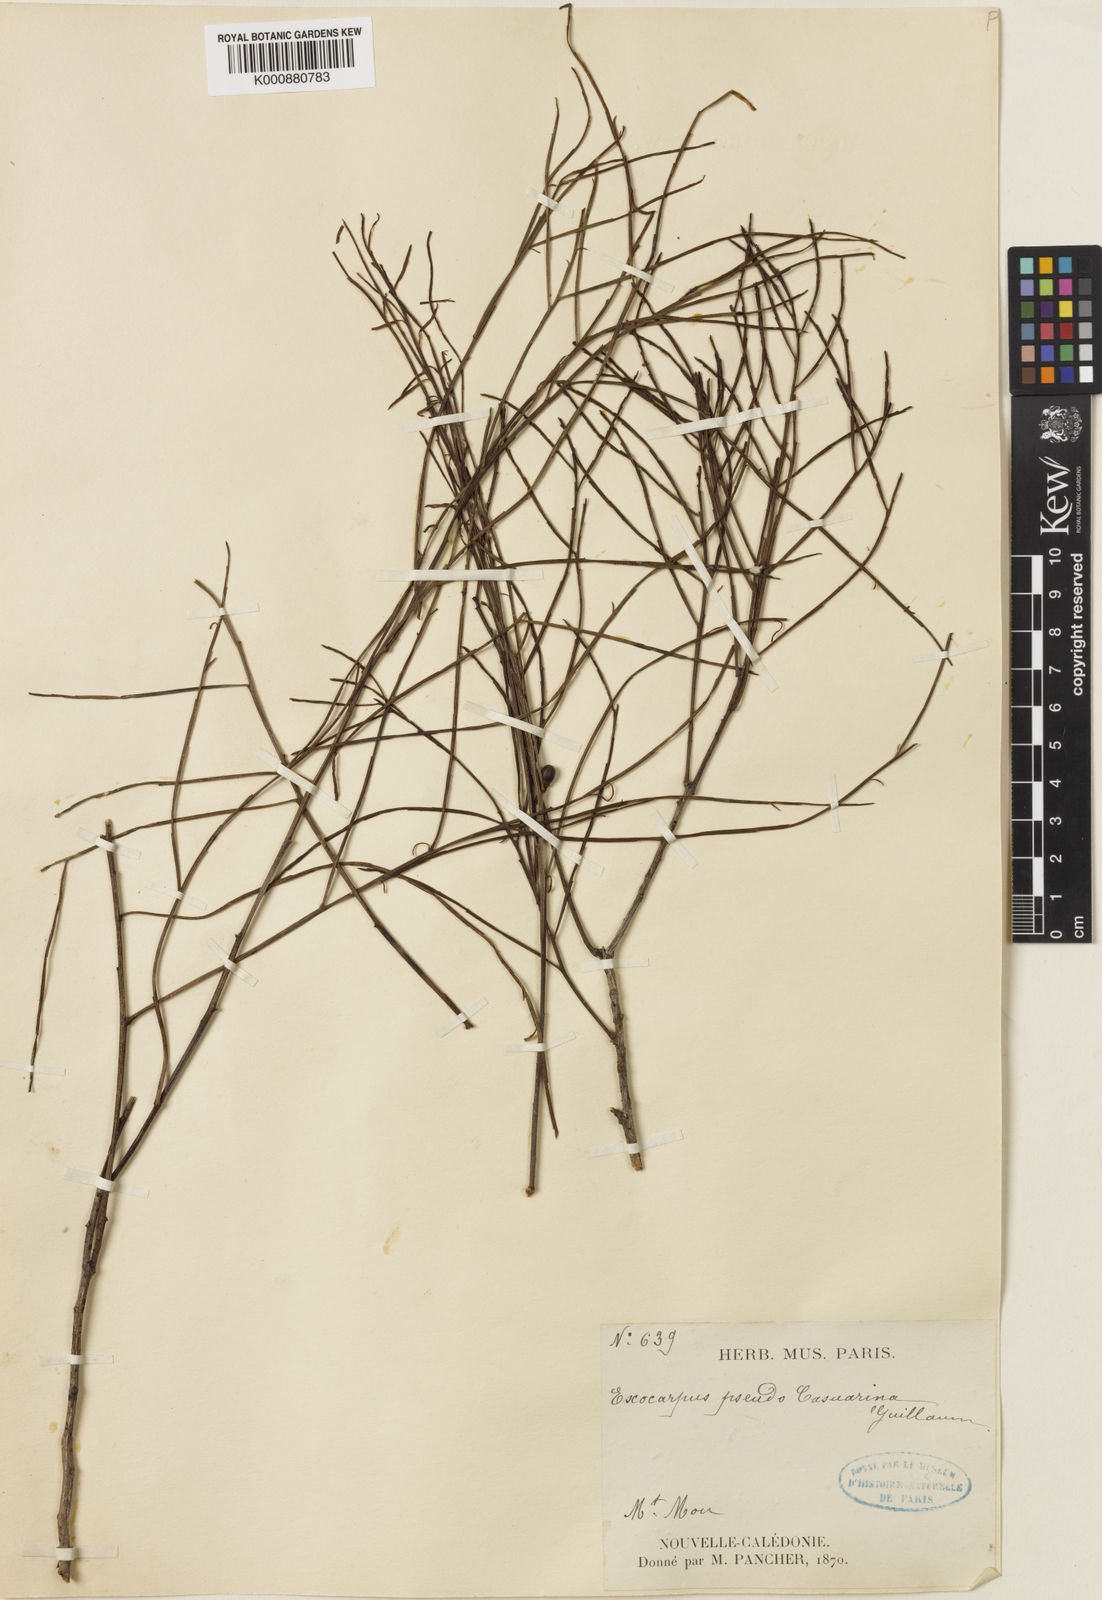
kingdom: Plantae
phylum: Tracheophyta
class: Magnoliopsida
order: Santalales
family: Santalaceae
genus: Exocarpos
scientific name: Exocarpos pseudocasuarina
